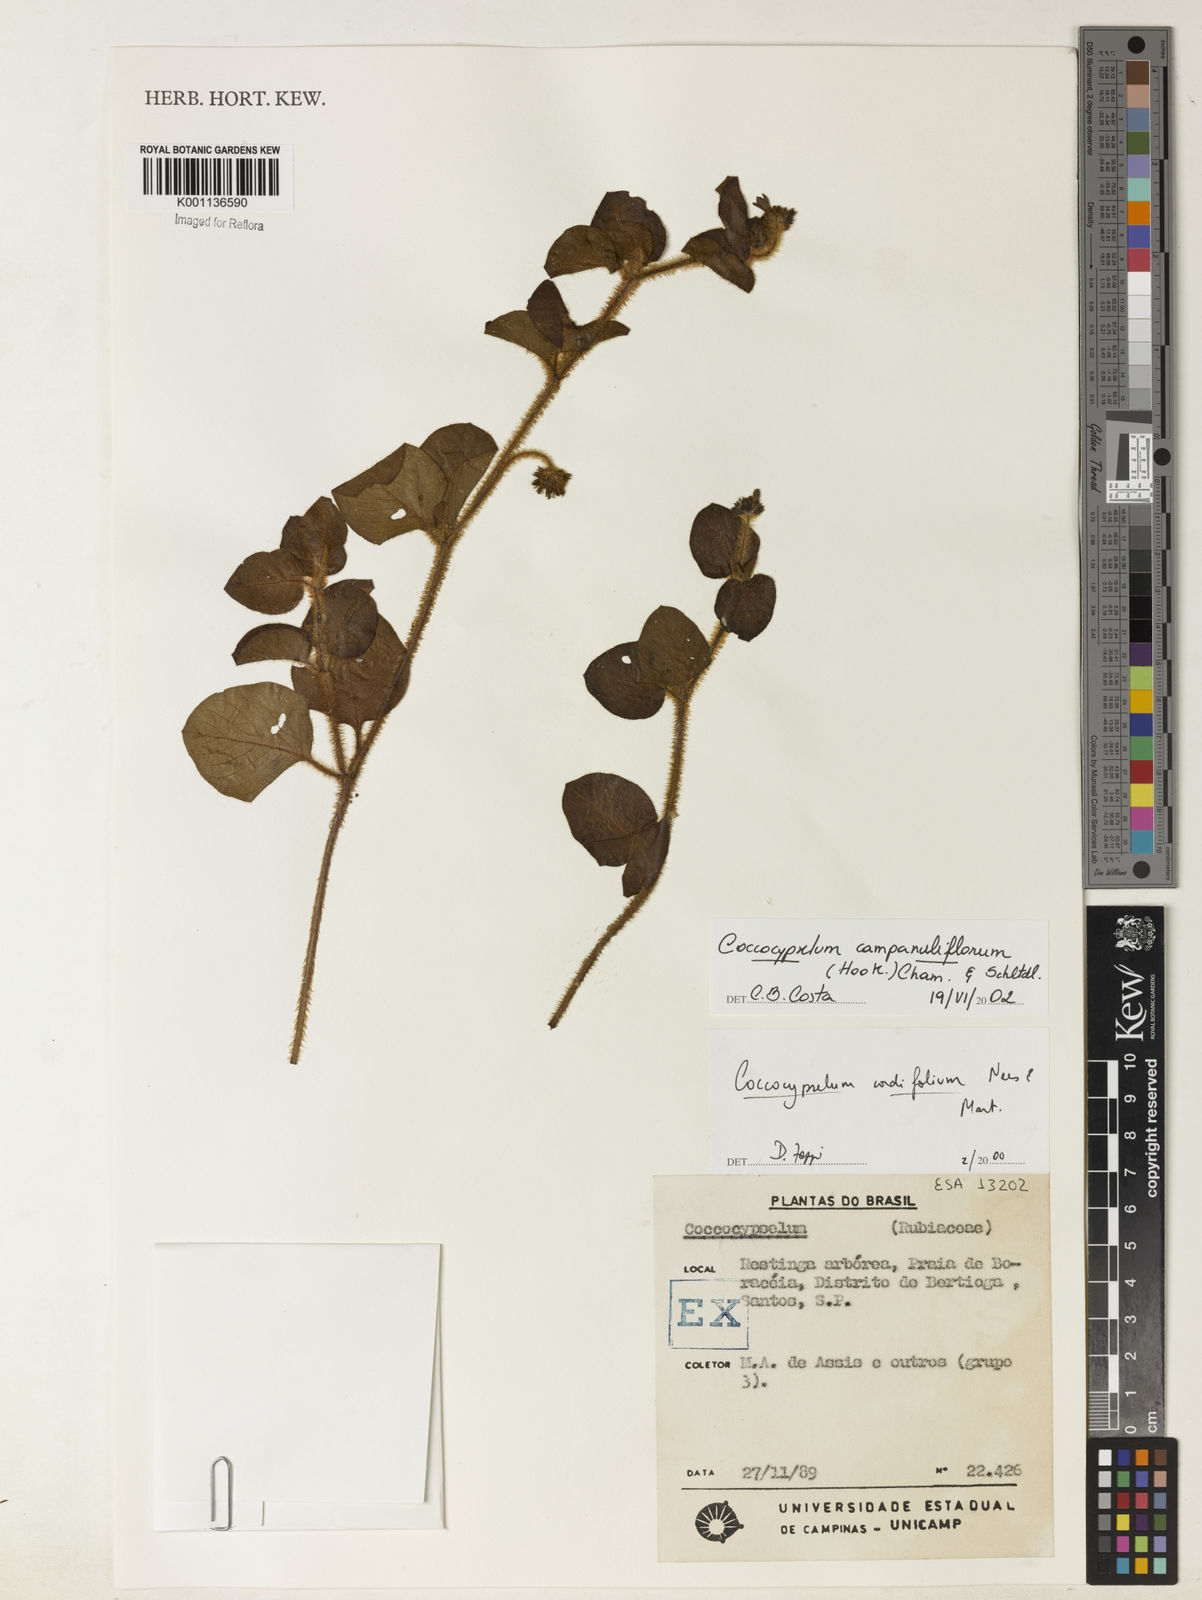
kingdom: Plantae
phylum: Tracheophyta
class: Magnoliopsida
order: Gentianales
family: Rubiaceae
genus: Coccocypselum
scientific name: Coccocypselum capitatum
